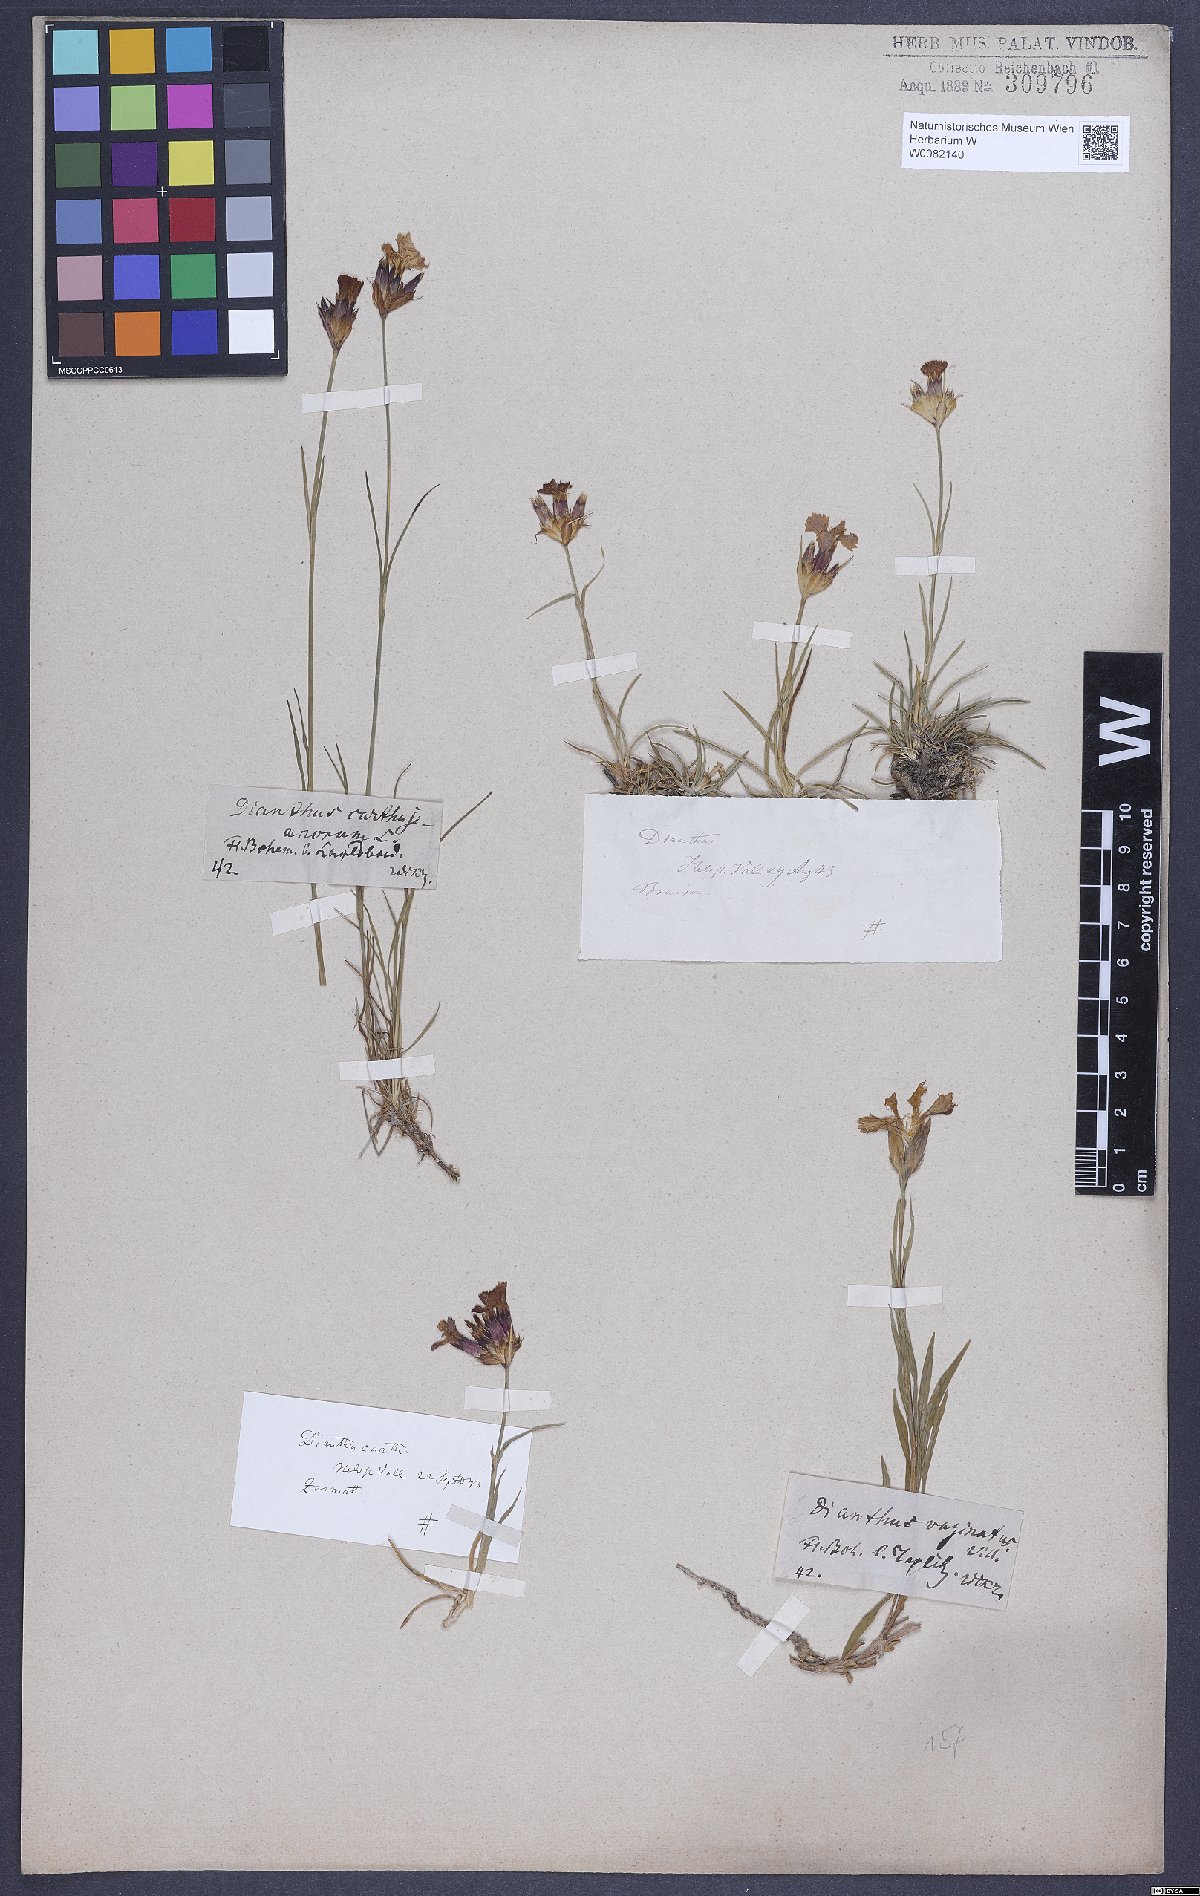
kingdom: Plantae
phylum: Tracheophyta
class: Magnoliopsida
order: Caryophyllales
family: Caryophyllaceae
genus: Dianthus
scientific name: Dianthus carthusianorum
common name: Carthusian pink
